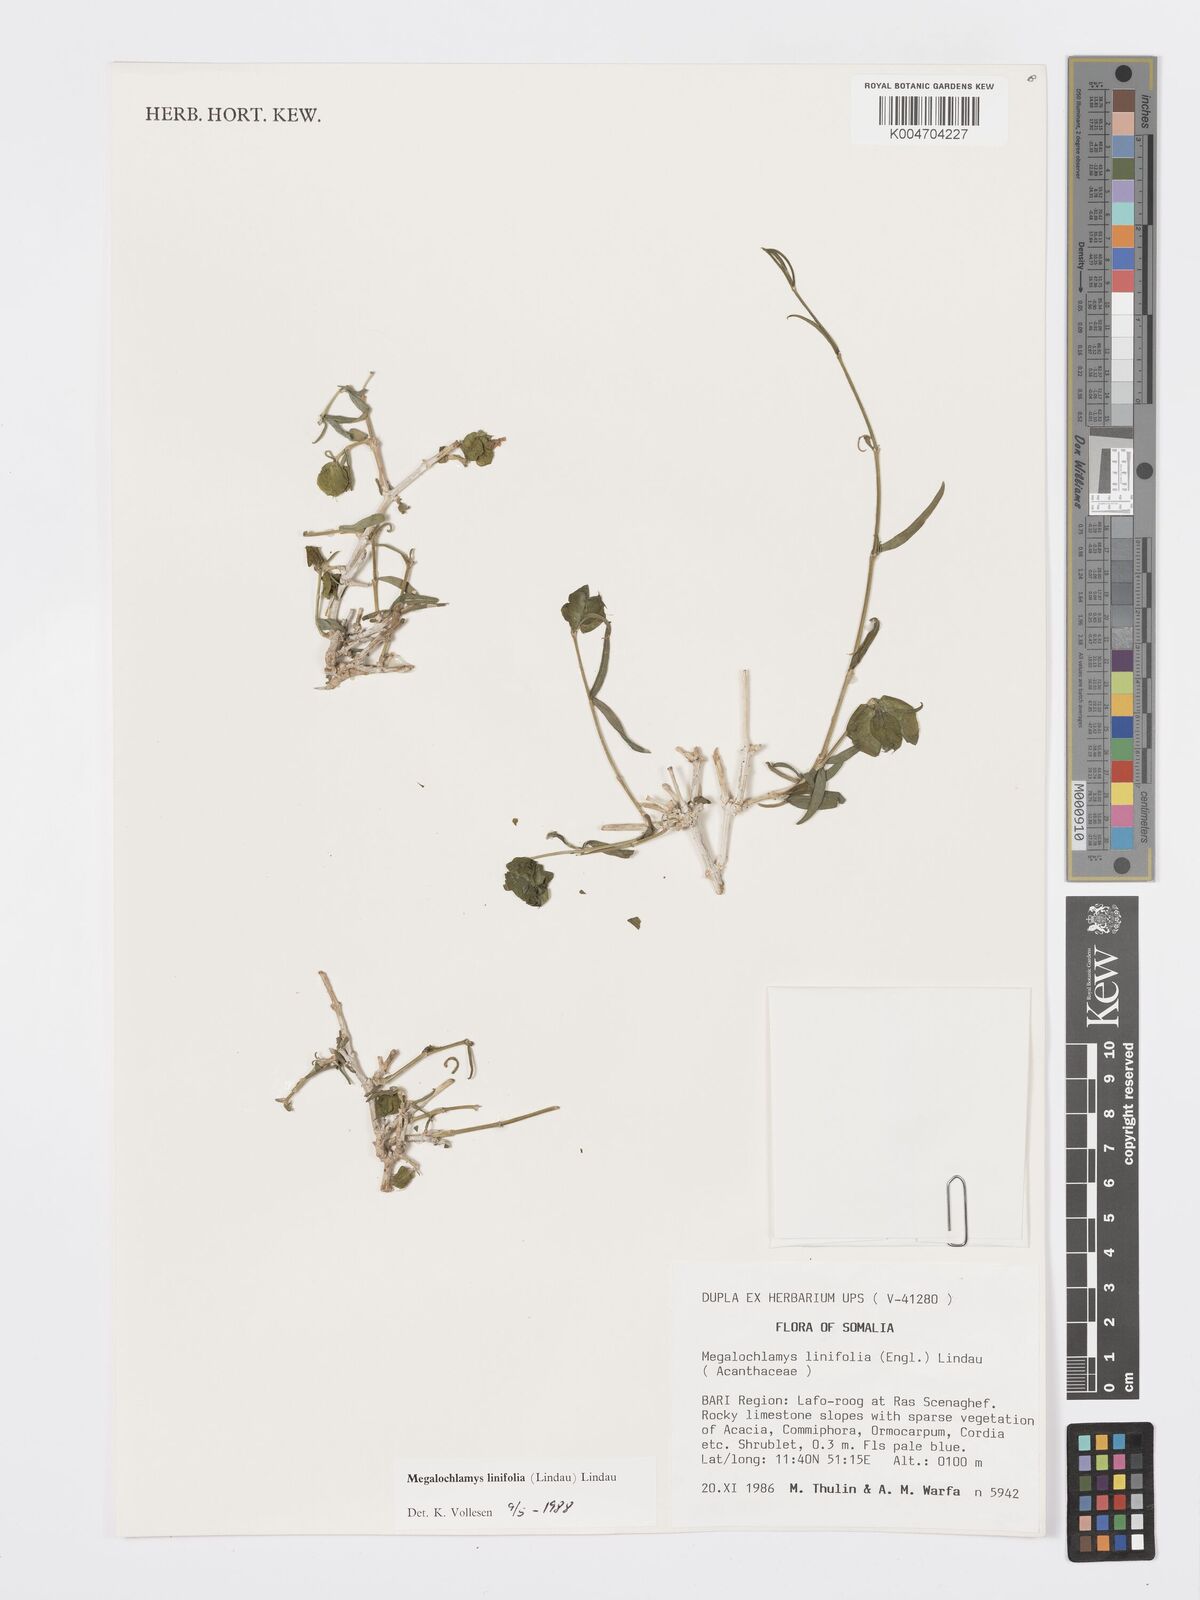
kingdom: Plantae
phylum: Tracheophyta
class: Magnoliopsida
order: Lamiales
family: Acanthaceae
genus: Megalochlamys
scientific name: Megalochlamys linifolia
